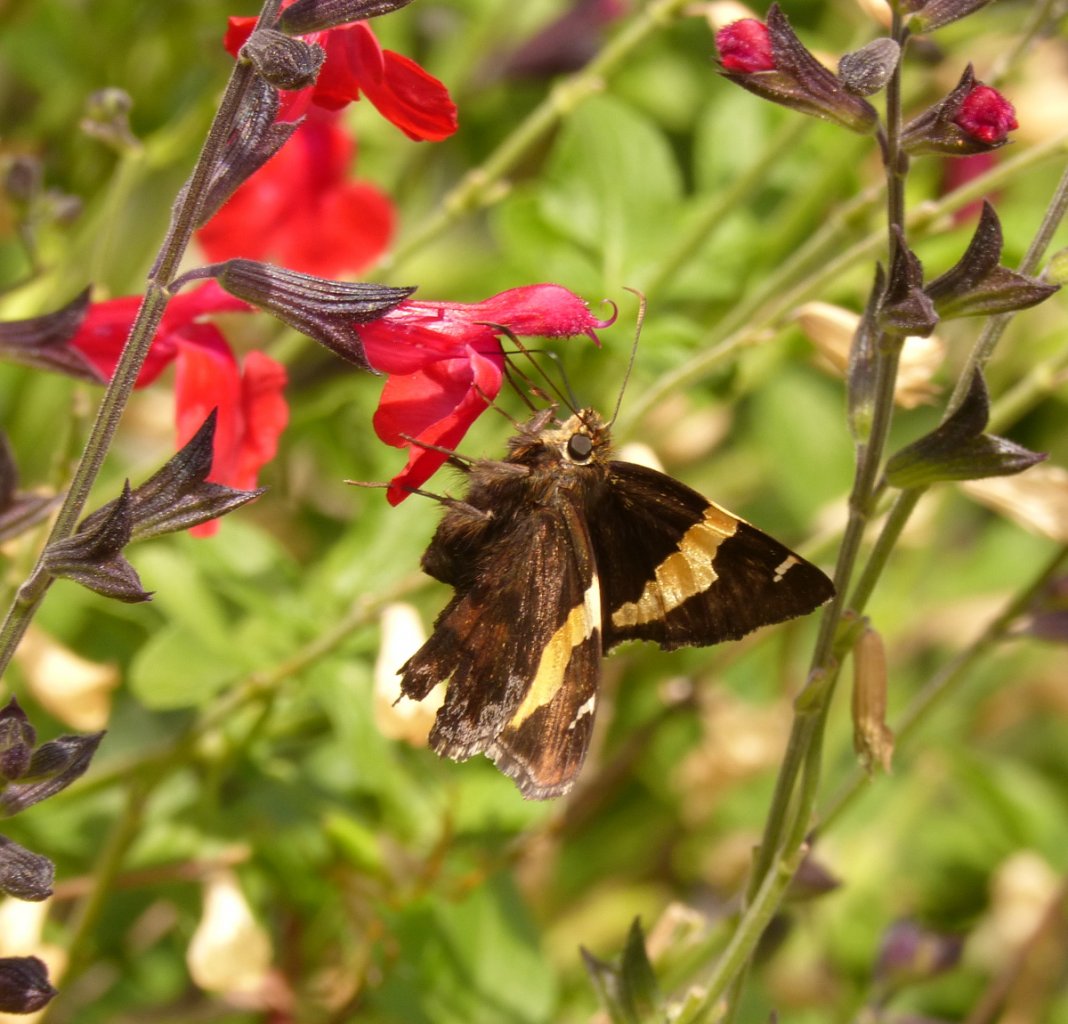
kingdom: Animalia
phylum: Arthropoda
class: Insecta
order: Lepidoptera
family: Hesperiidae
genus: Autochton
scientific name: Autochton cellus
